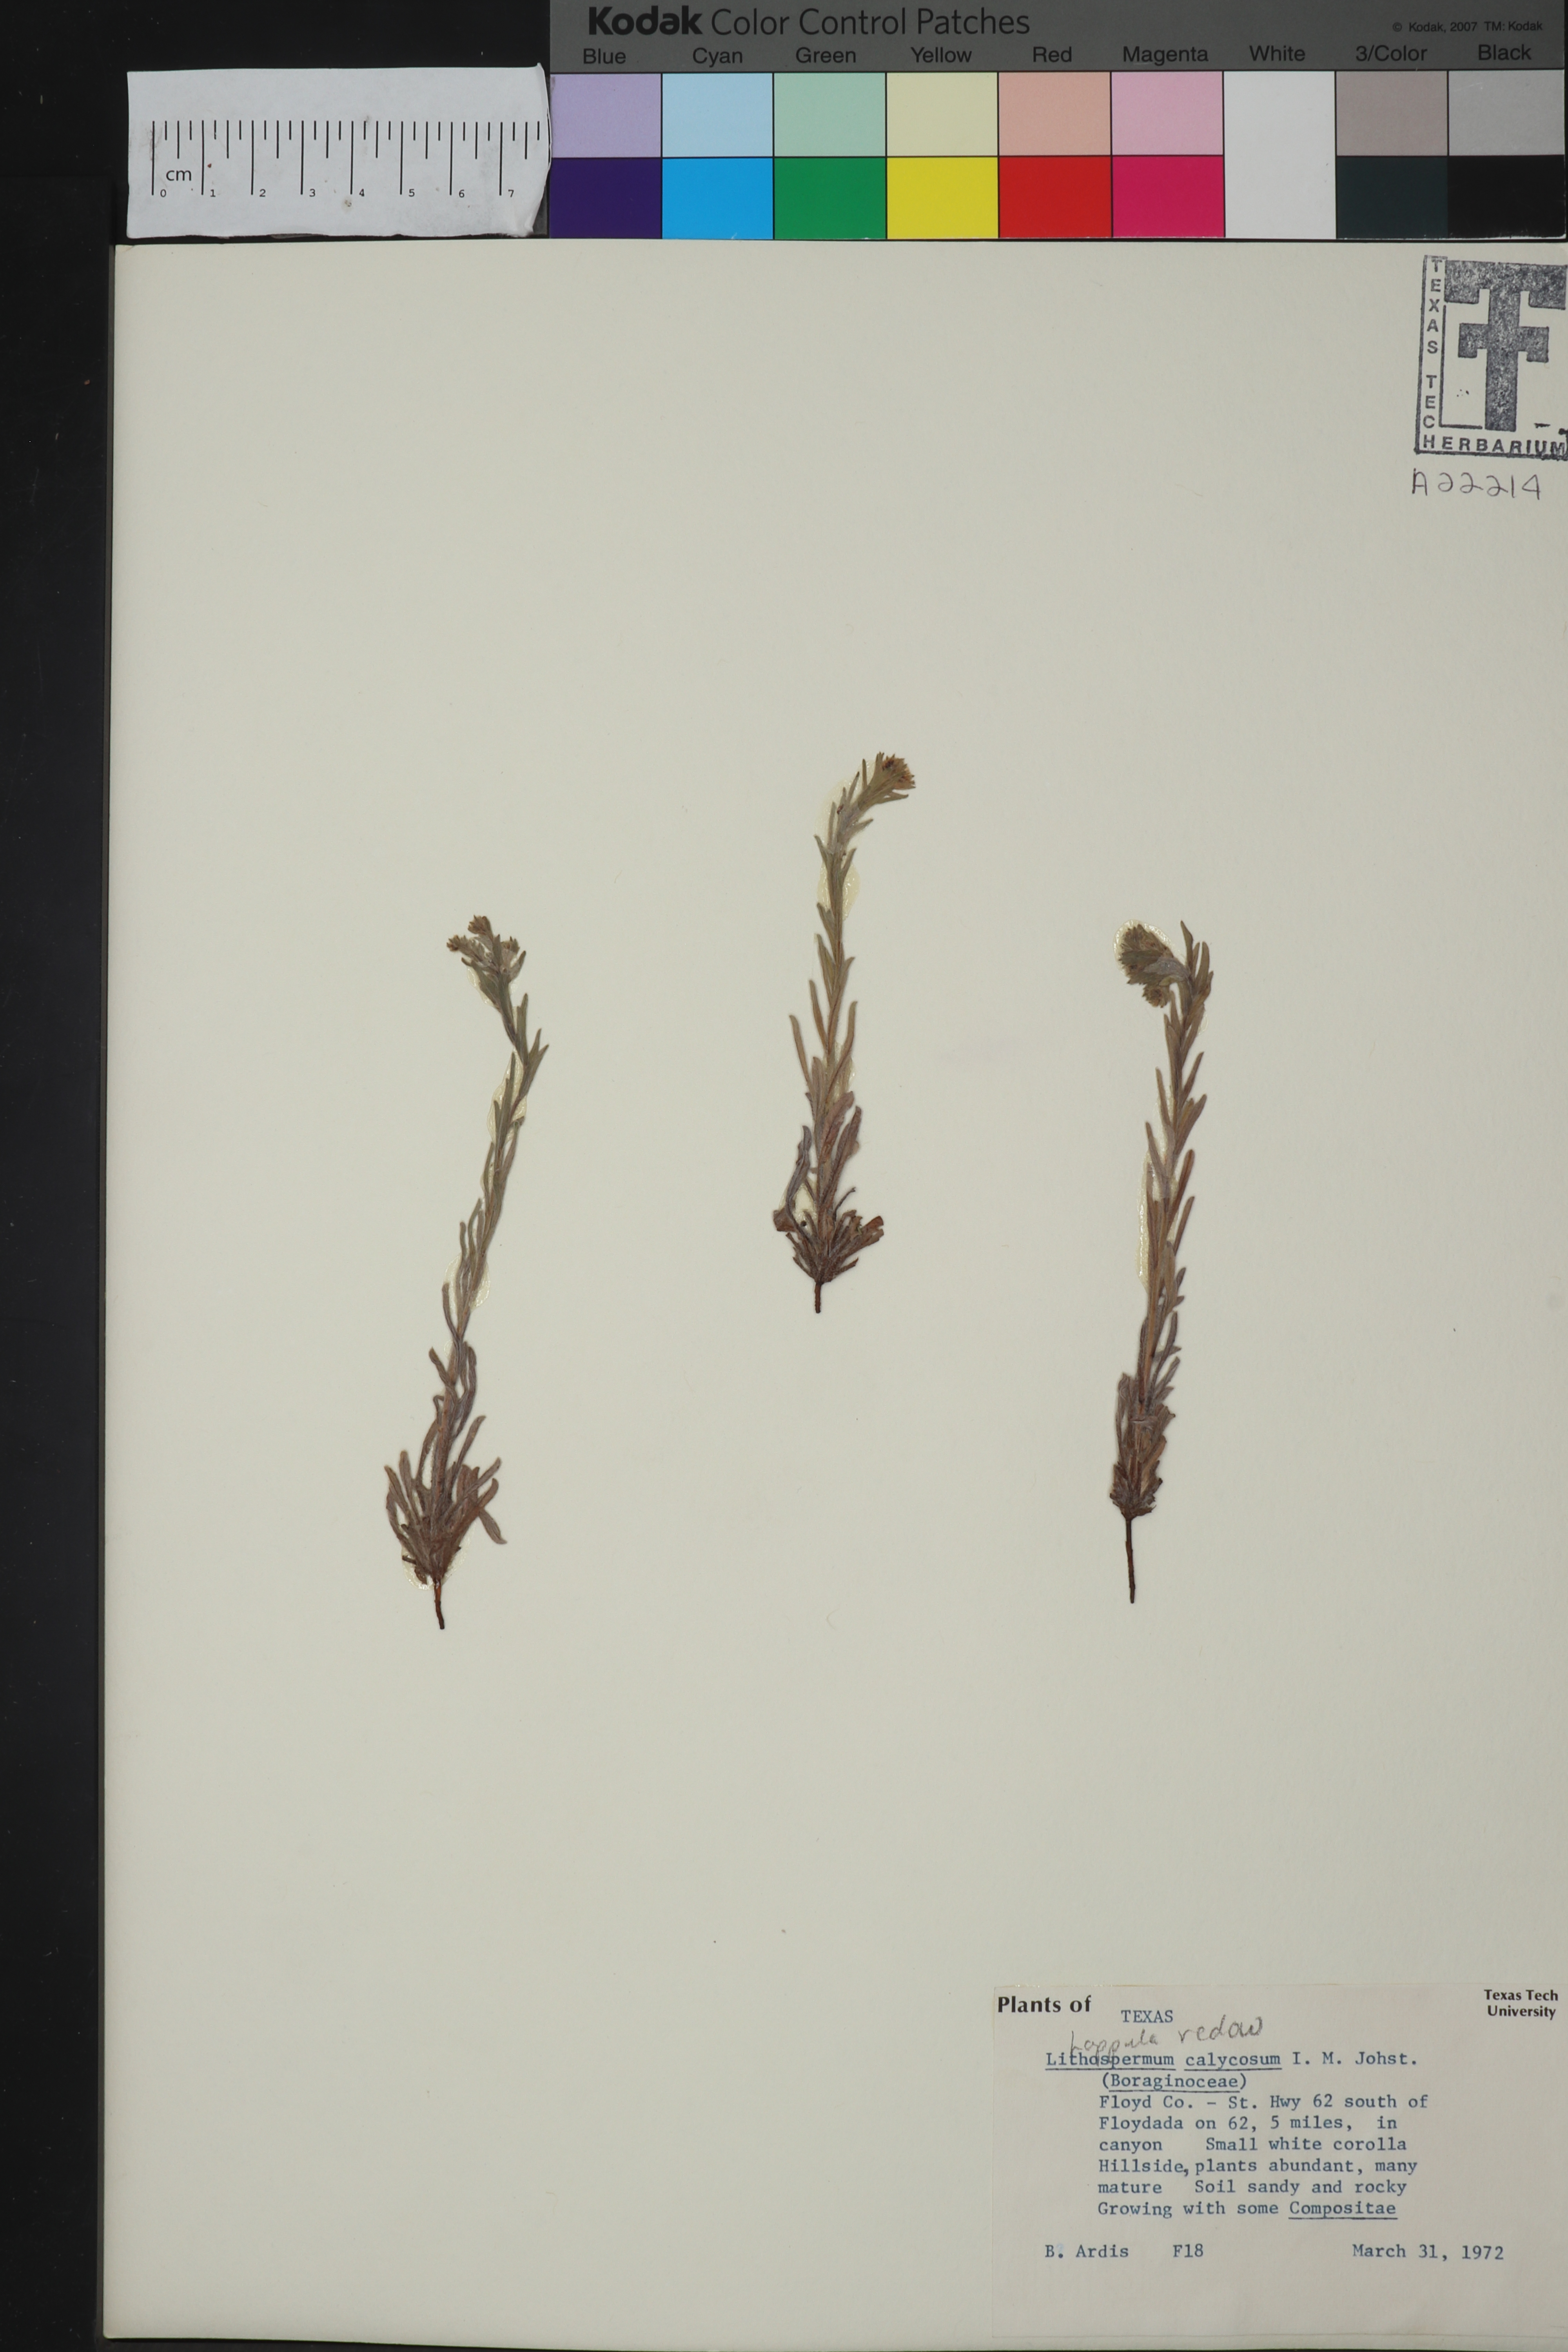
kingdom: Plantae
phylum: Tracheophyta
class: Magnoliopsida
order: Boraginales
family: Boraginaceae
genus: Lappula
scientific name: Lappula redowskii
